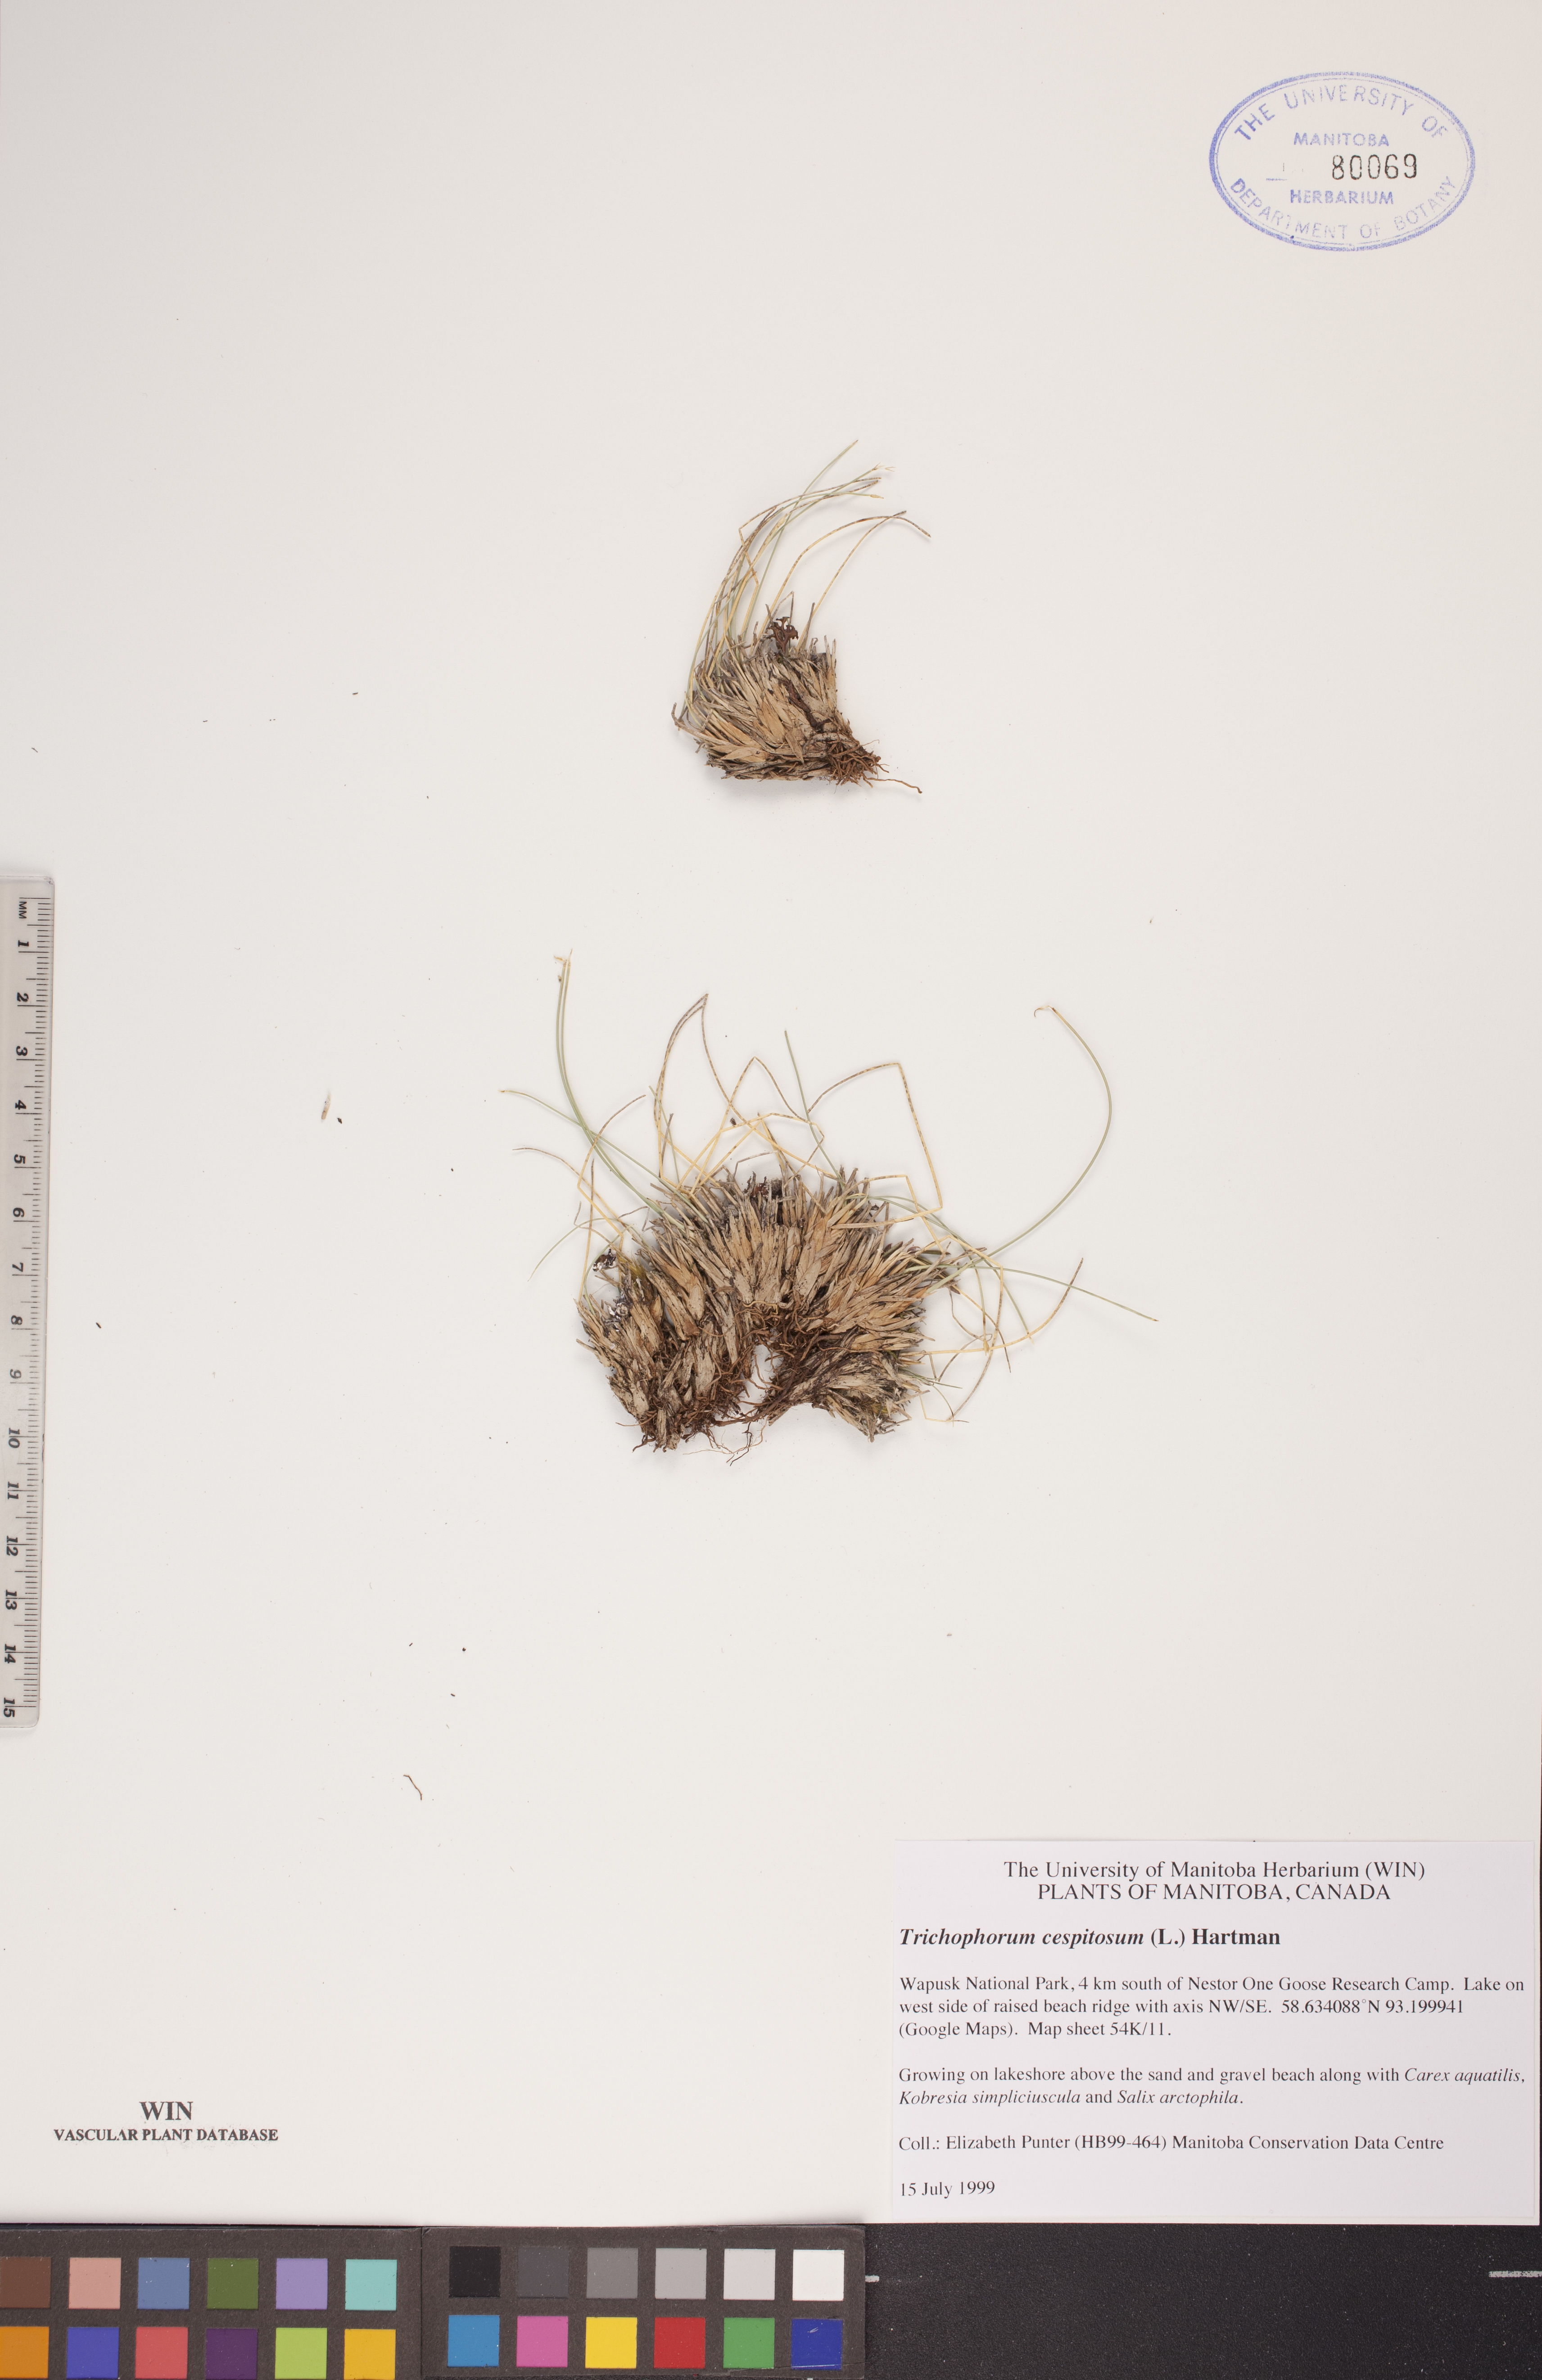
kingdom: Plantae
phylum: Tracheophyta
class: Liliopsida
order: Poales
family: Cyperaceae
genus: Trichophorum
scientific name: Trichophorum cespitosum
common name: Cespitose bulrush
